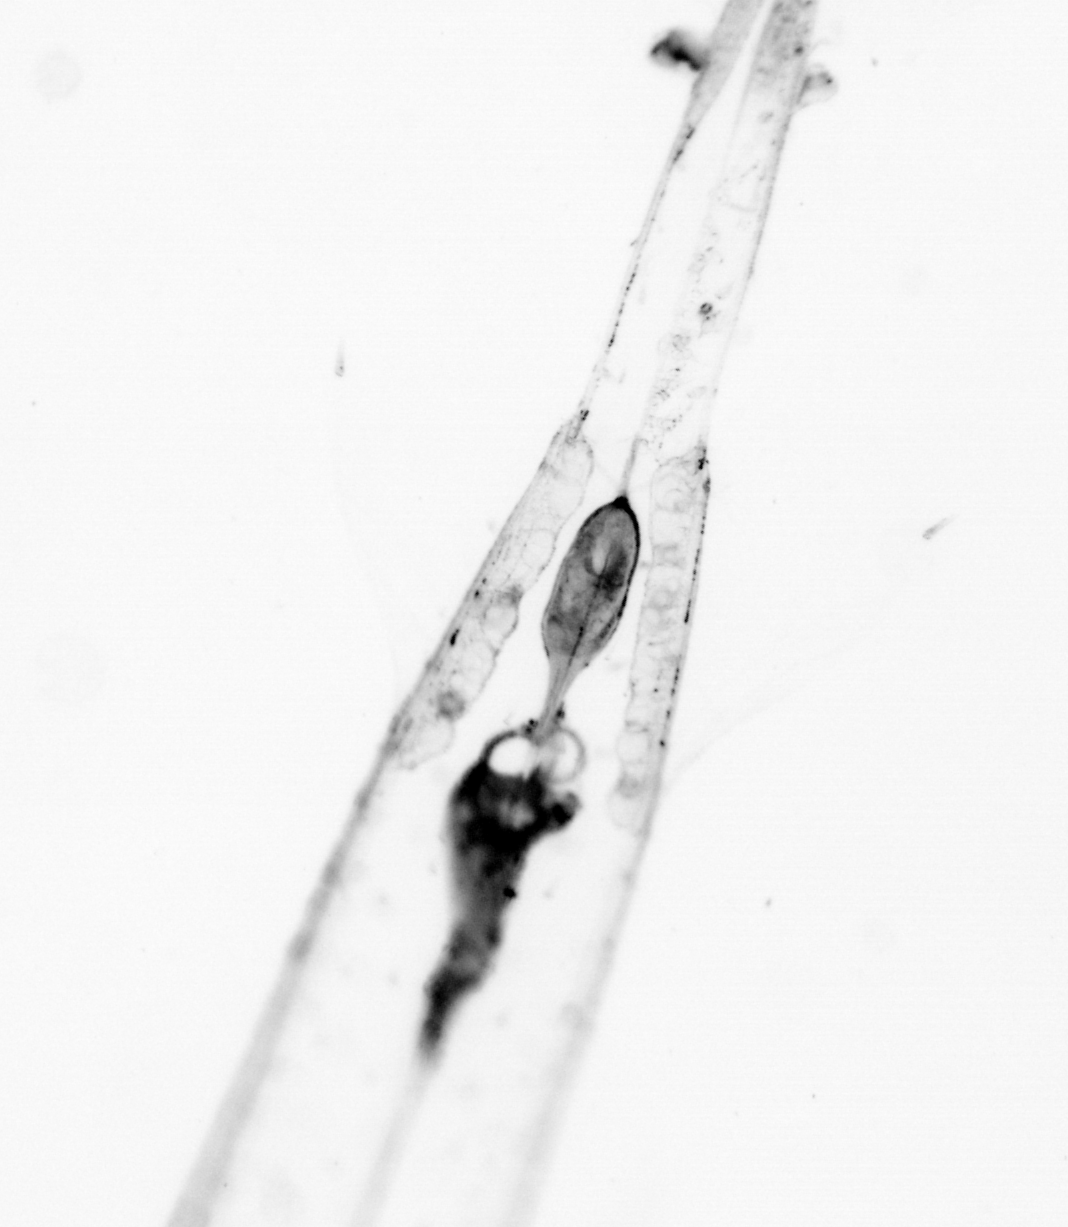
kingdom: Animalia
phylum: Chaetognatha
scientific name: Chaetognatha
